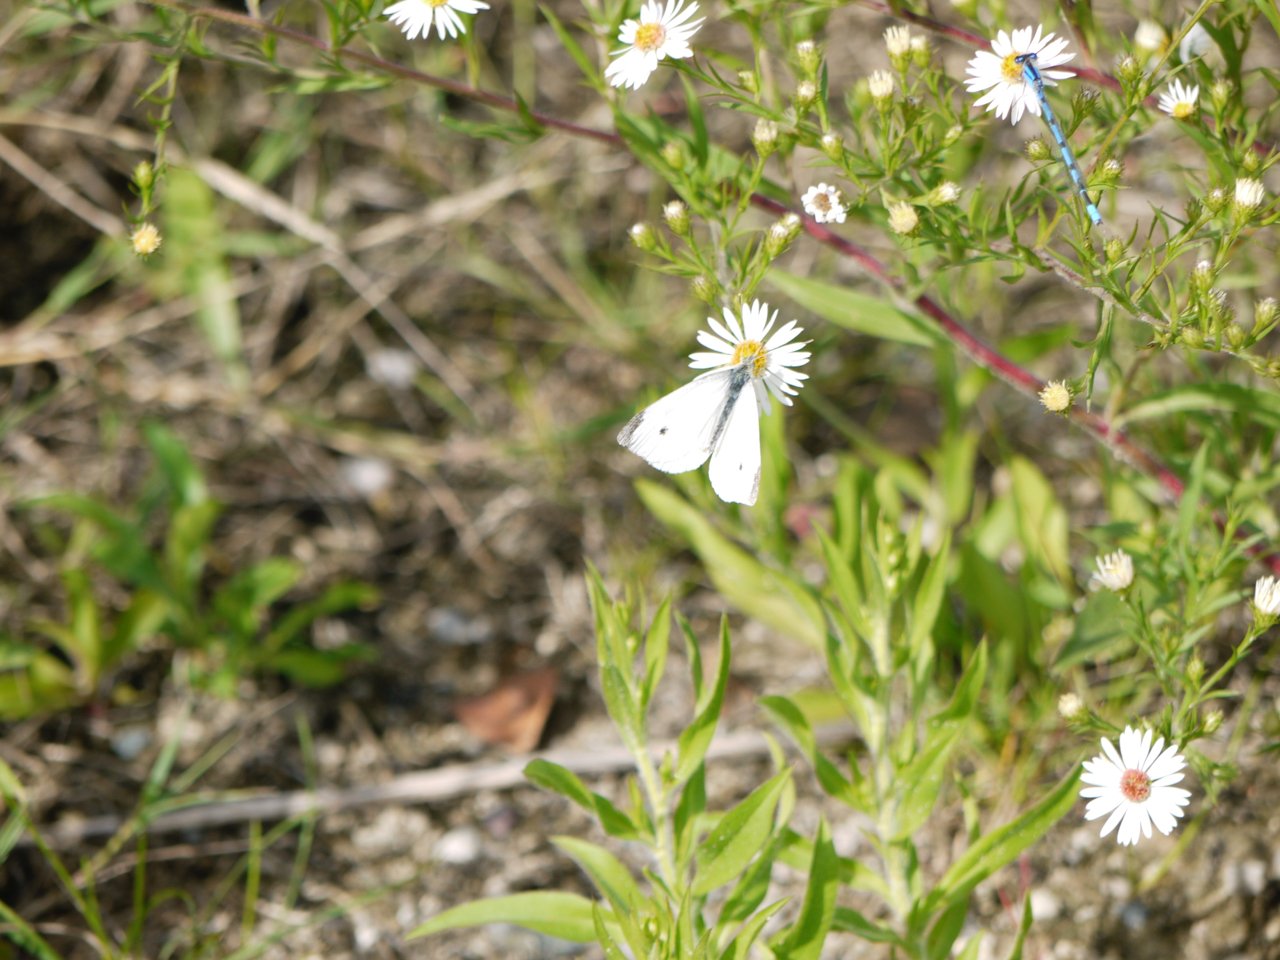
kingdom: Animalia
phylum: Arthropoda
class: Insecta
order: Lepidoptera
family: Pieridae
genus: Pieris
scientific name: Pieris rapae
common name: Cabbage White
